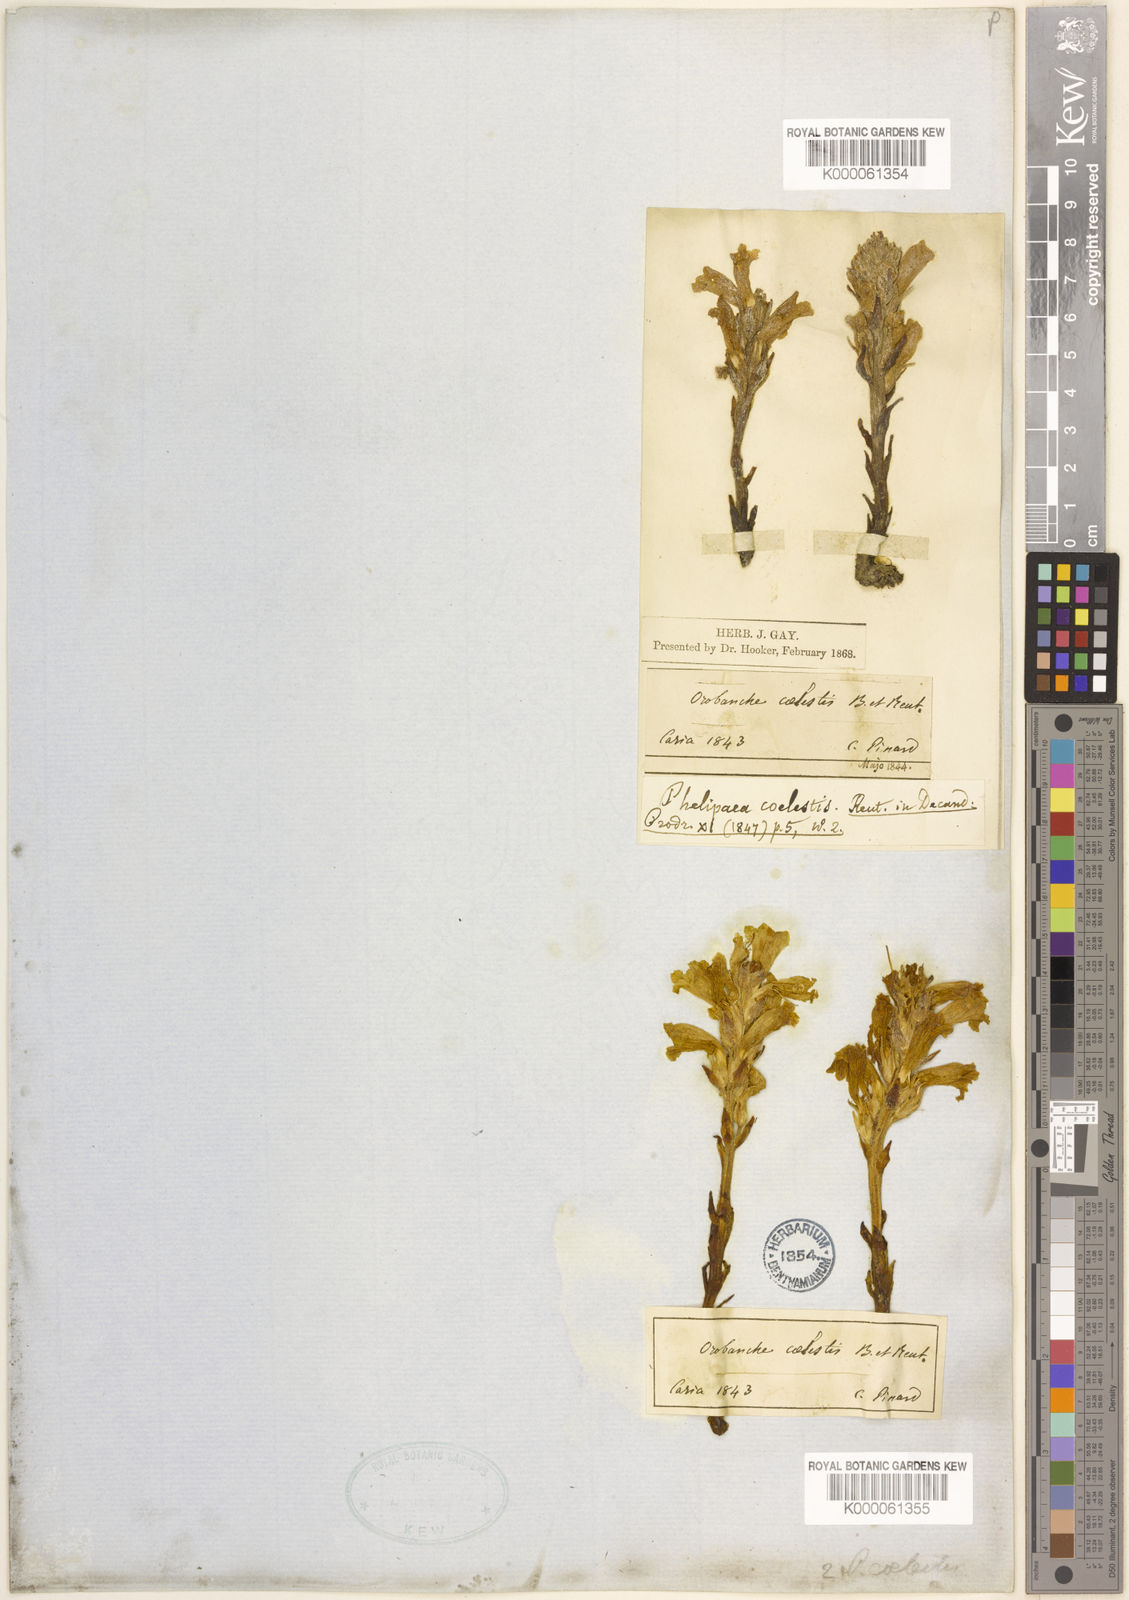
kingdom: Plantae
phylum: Tracheophyta
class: Magnoliopsida
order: Lamiales
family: Orobanchaceae
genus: Phelipanche
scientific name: Phelipanche coelestis
